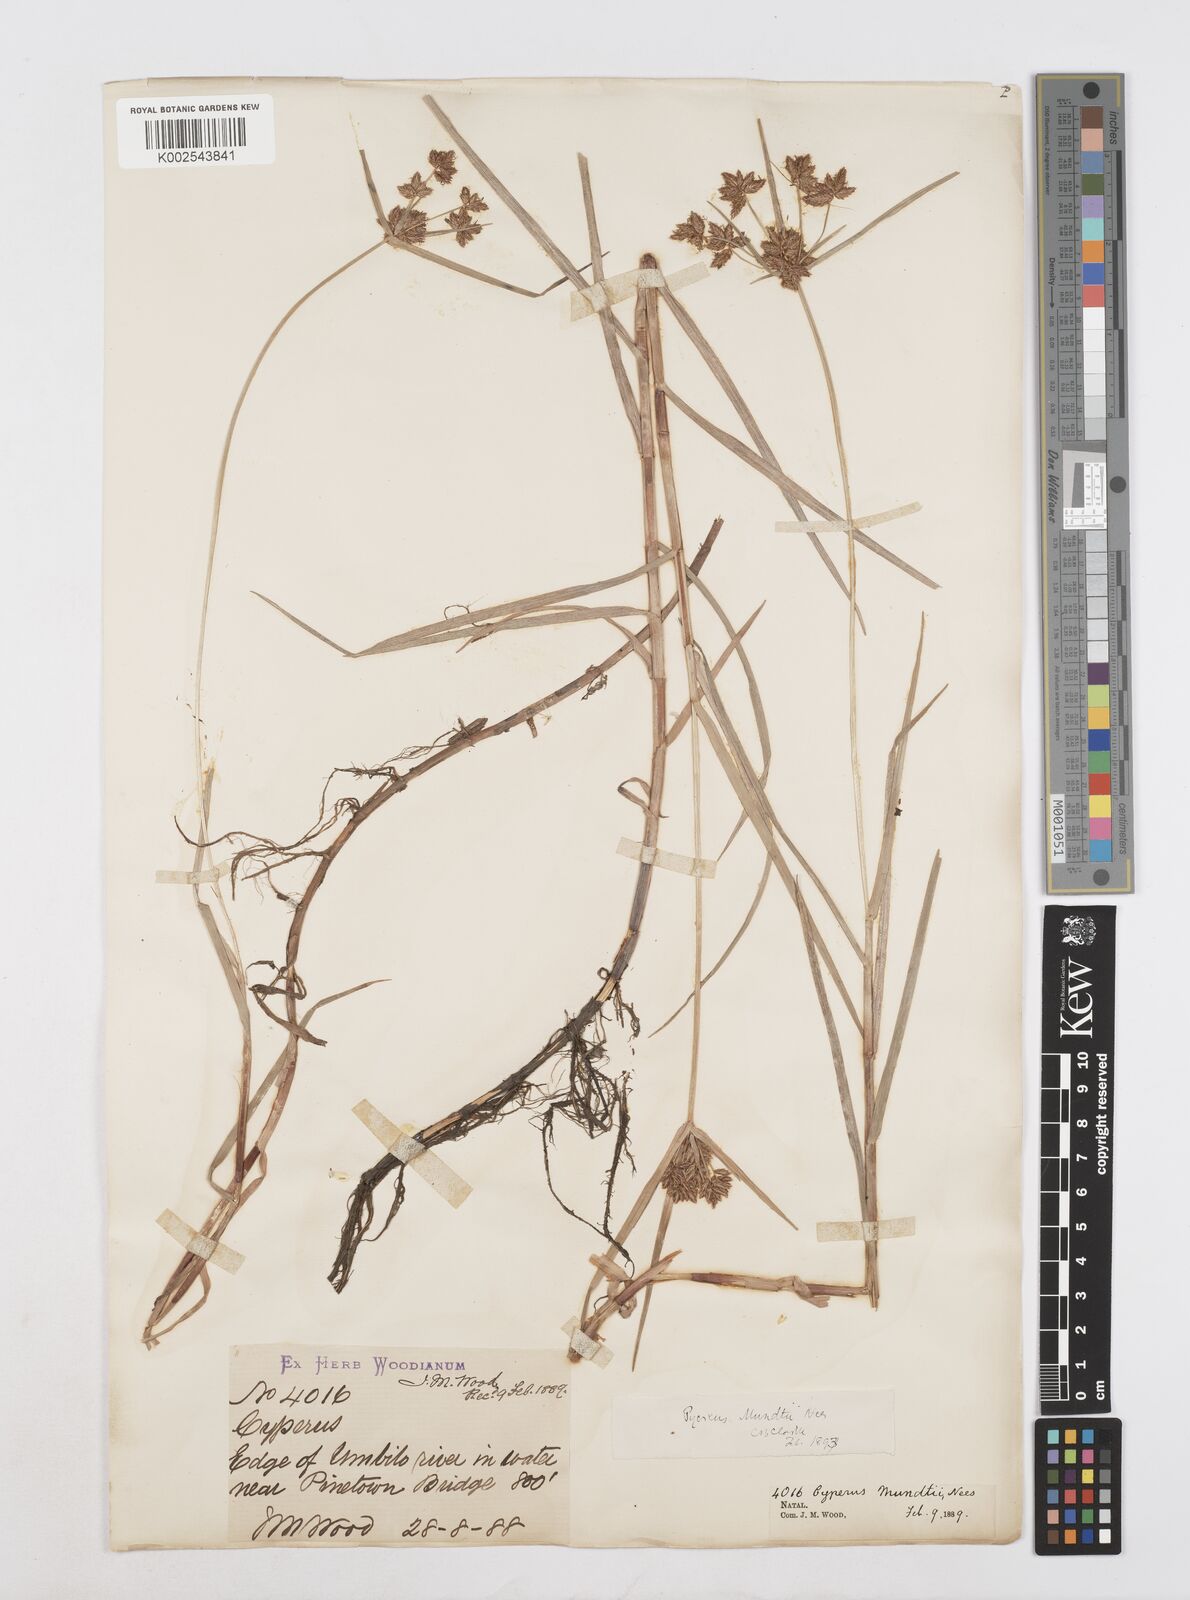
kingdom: Plantae
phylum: Tracheophyta
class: Liliopsida
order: Poales
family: Cyperaceae
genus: Cyperus
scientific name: Cyperus mundii
